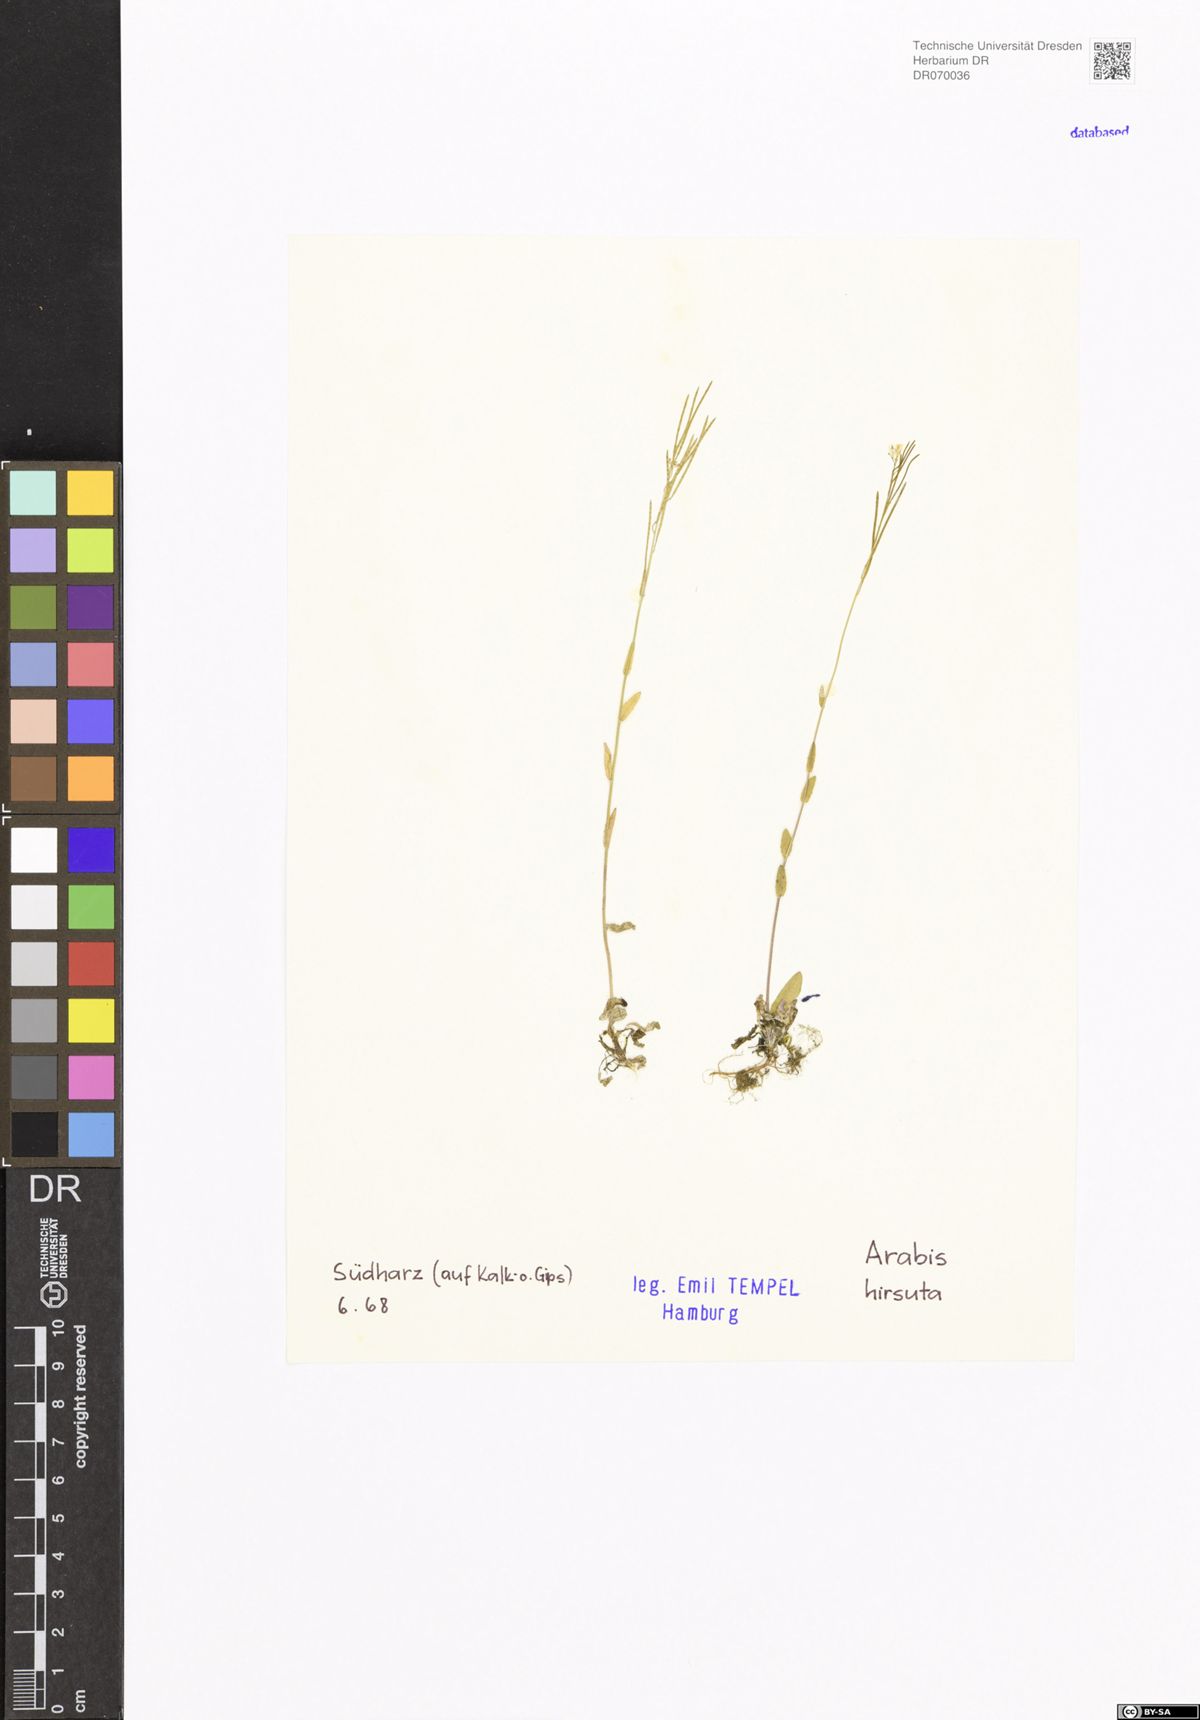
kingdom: Plantae
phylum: Tracheophyta
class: Magnoliopsida
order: Brassicales
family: Brassicaceae
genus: Arabis
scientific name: Arabis hirsuta
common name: Hairy rock-cress
